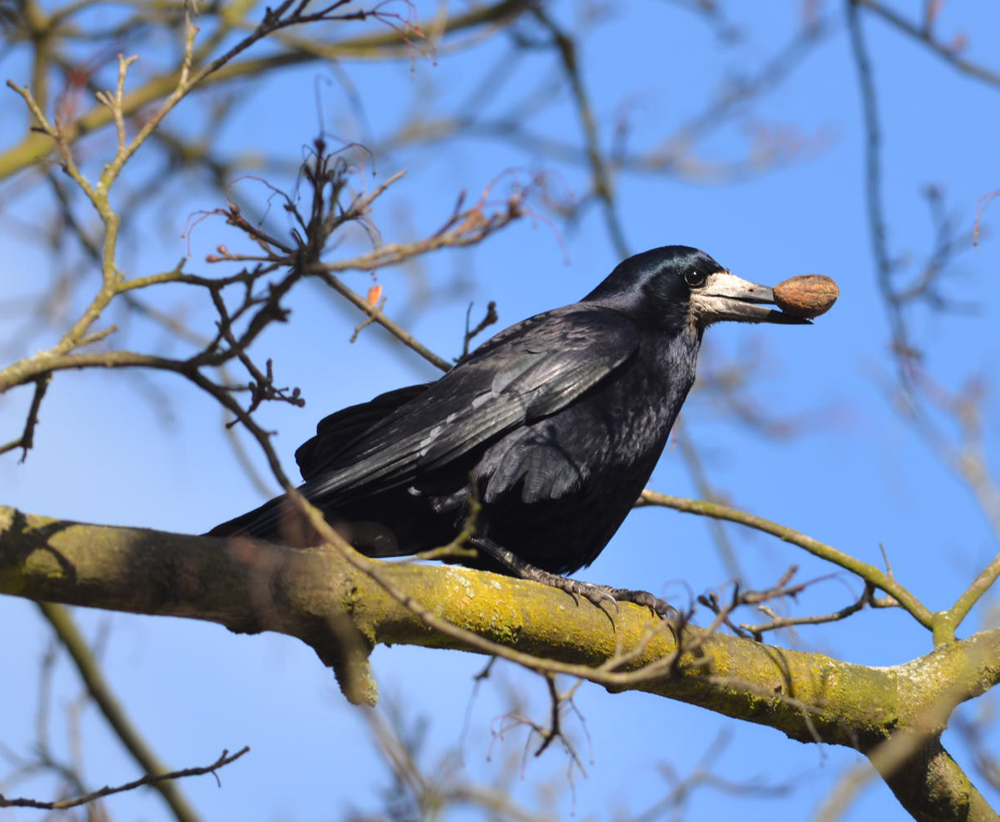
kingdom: Animalia
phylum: Chordata
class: Aves
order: Passeriformes
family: Corvidae
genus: Corvus
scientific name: Corvus frugilegus
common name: Rook
